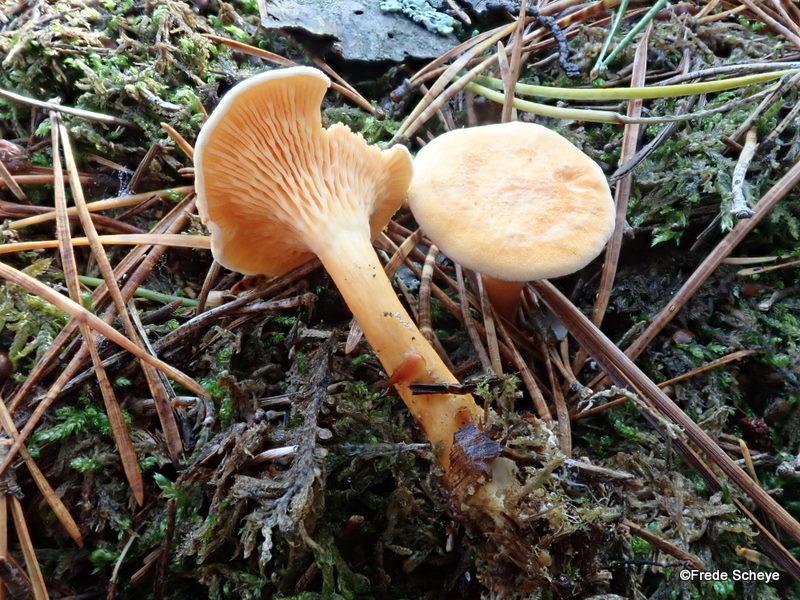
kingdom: Fungi
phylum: Basidiomycota
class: Agaricomycetes
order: Boletales
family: Hygrophoropsidaceae
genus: Hygrophoropsis
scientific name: Hygrophoropsis aurantiaca
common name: almindelig orangekantarel
